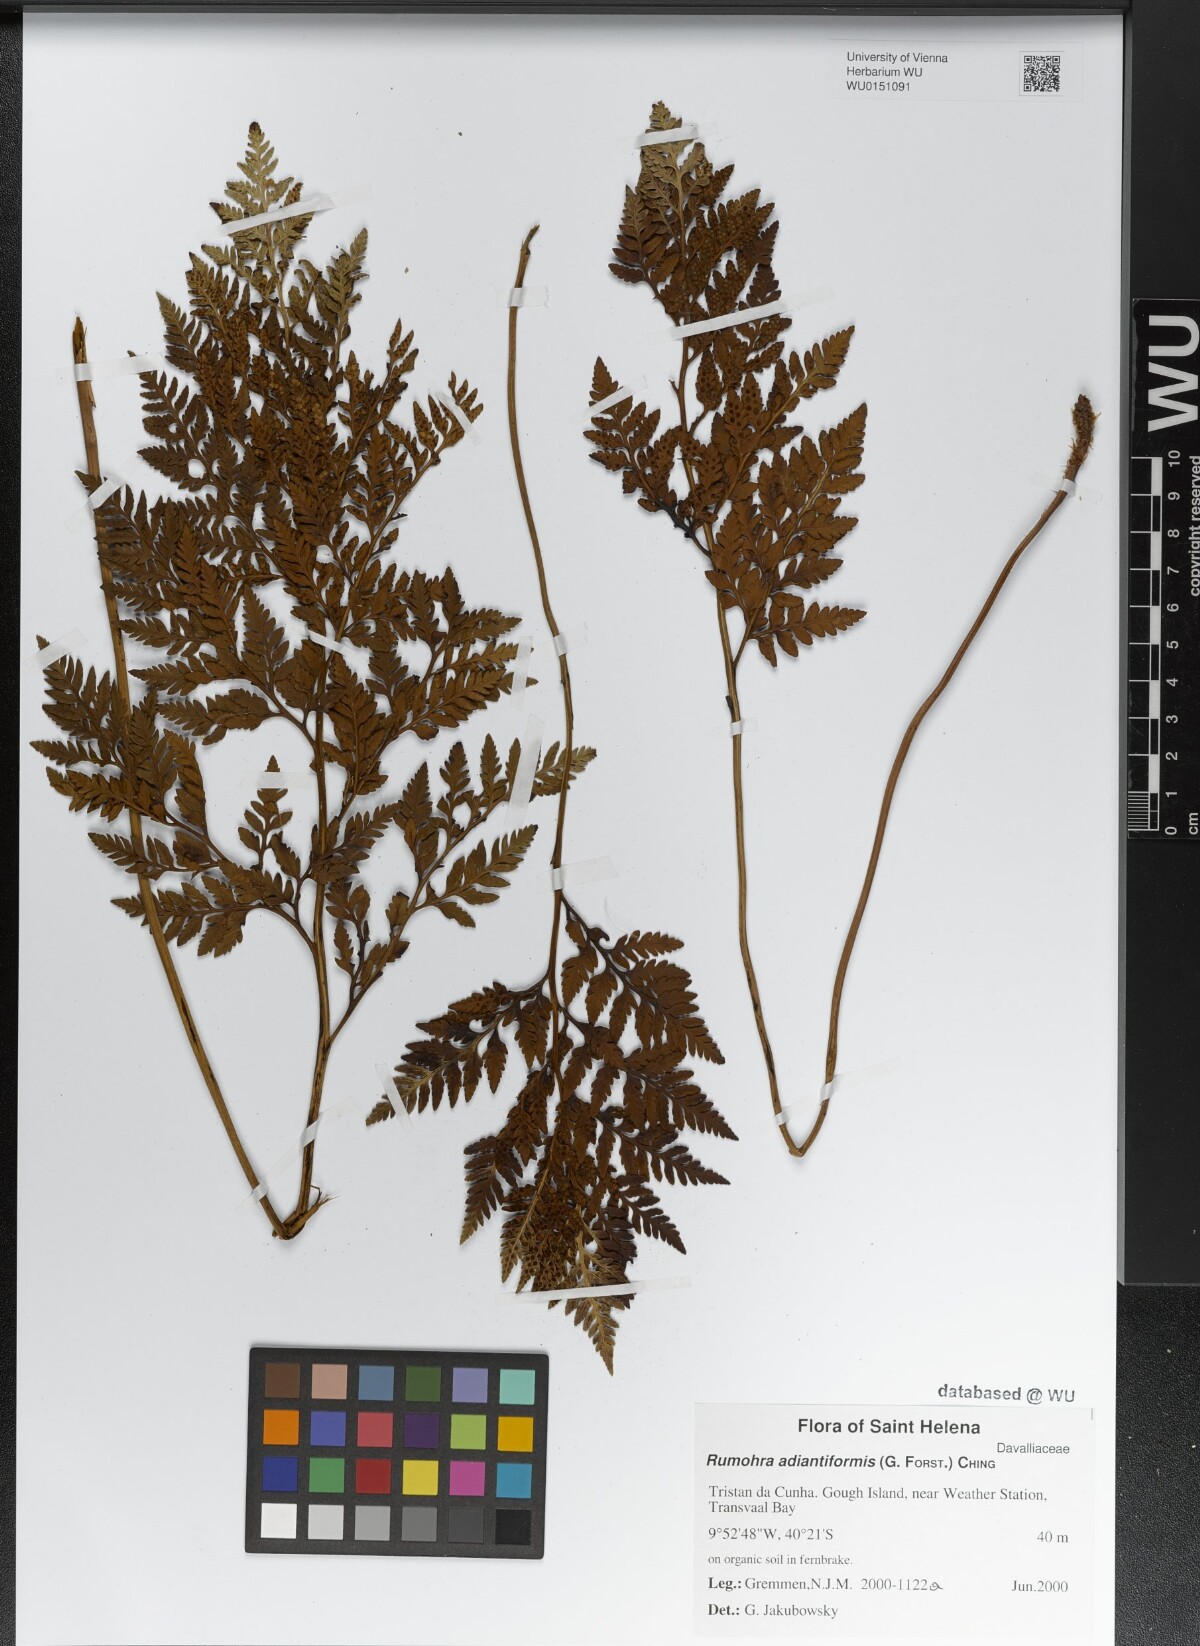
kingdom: Plantae
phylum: Tracheophyta
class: Polypodiopsida
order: Polypodiales
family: Dryopteridaceae
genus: Rumohra
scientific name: Rumohra adiantiformis
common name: Leather fern
